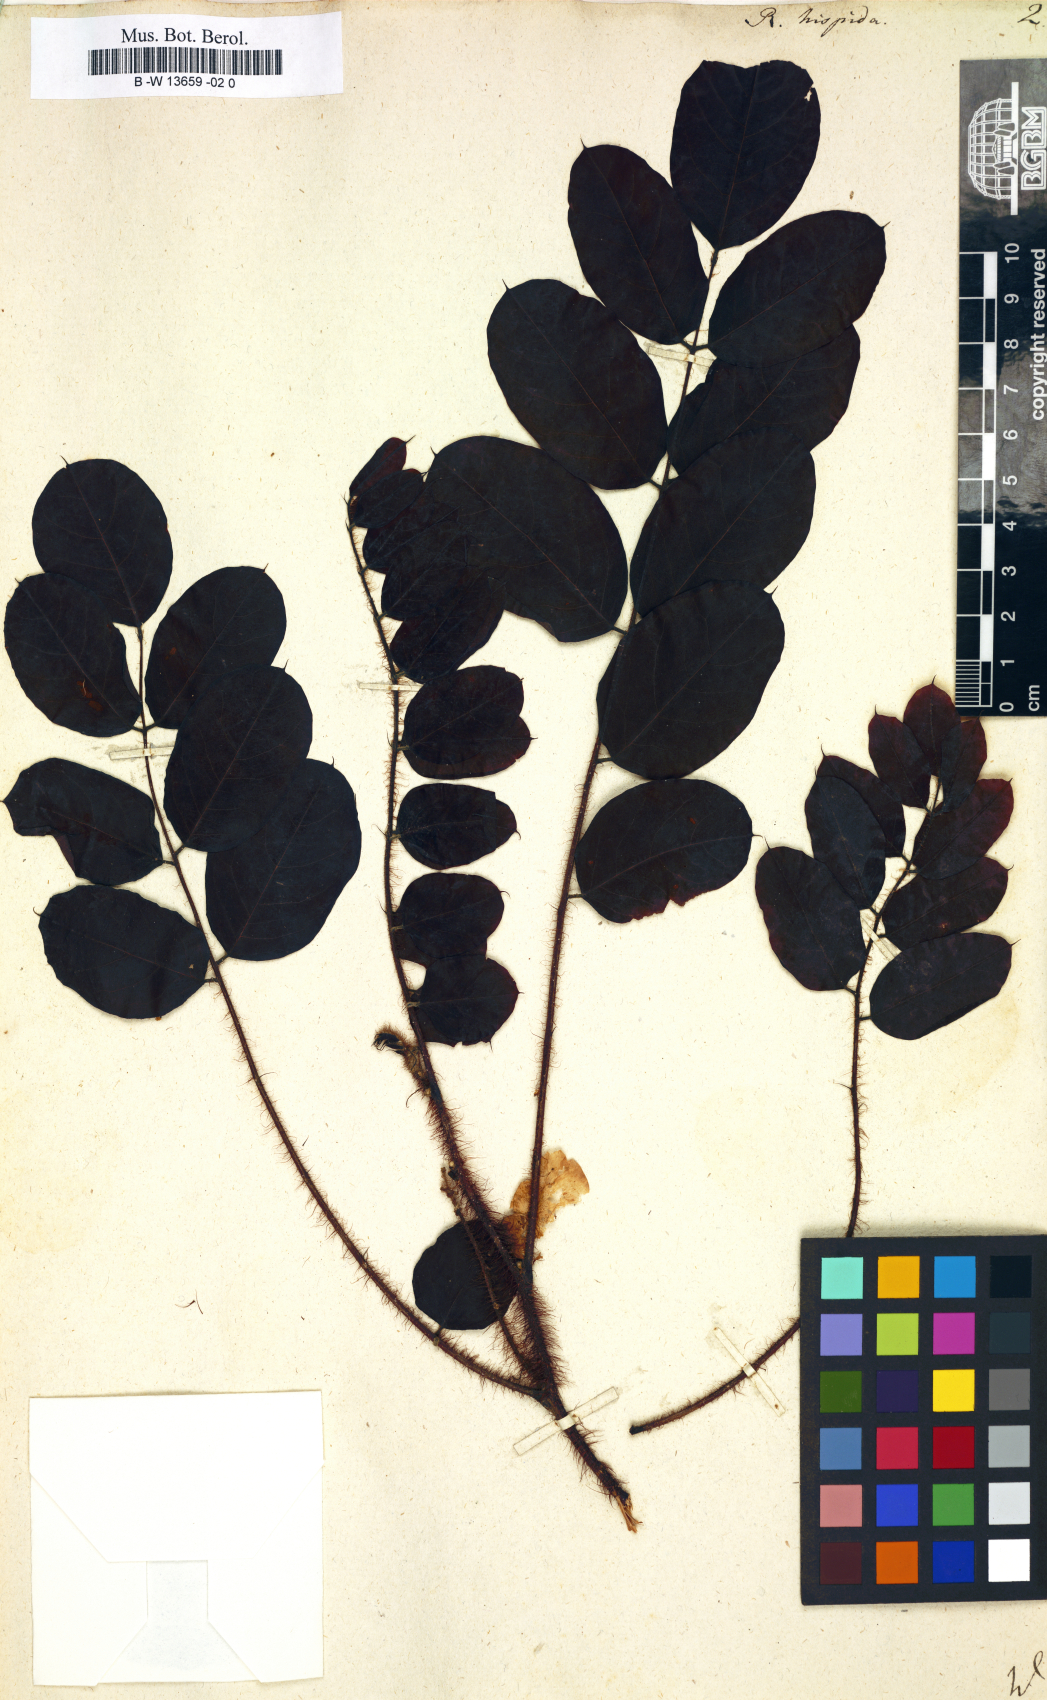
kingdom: Plantae
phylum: Tracheophyta
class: Magnoliopsida
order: Fabales
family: Fabaceae
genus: Robinia
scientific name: Robinia hispida
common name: Bristly locust
